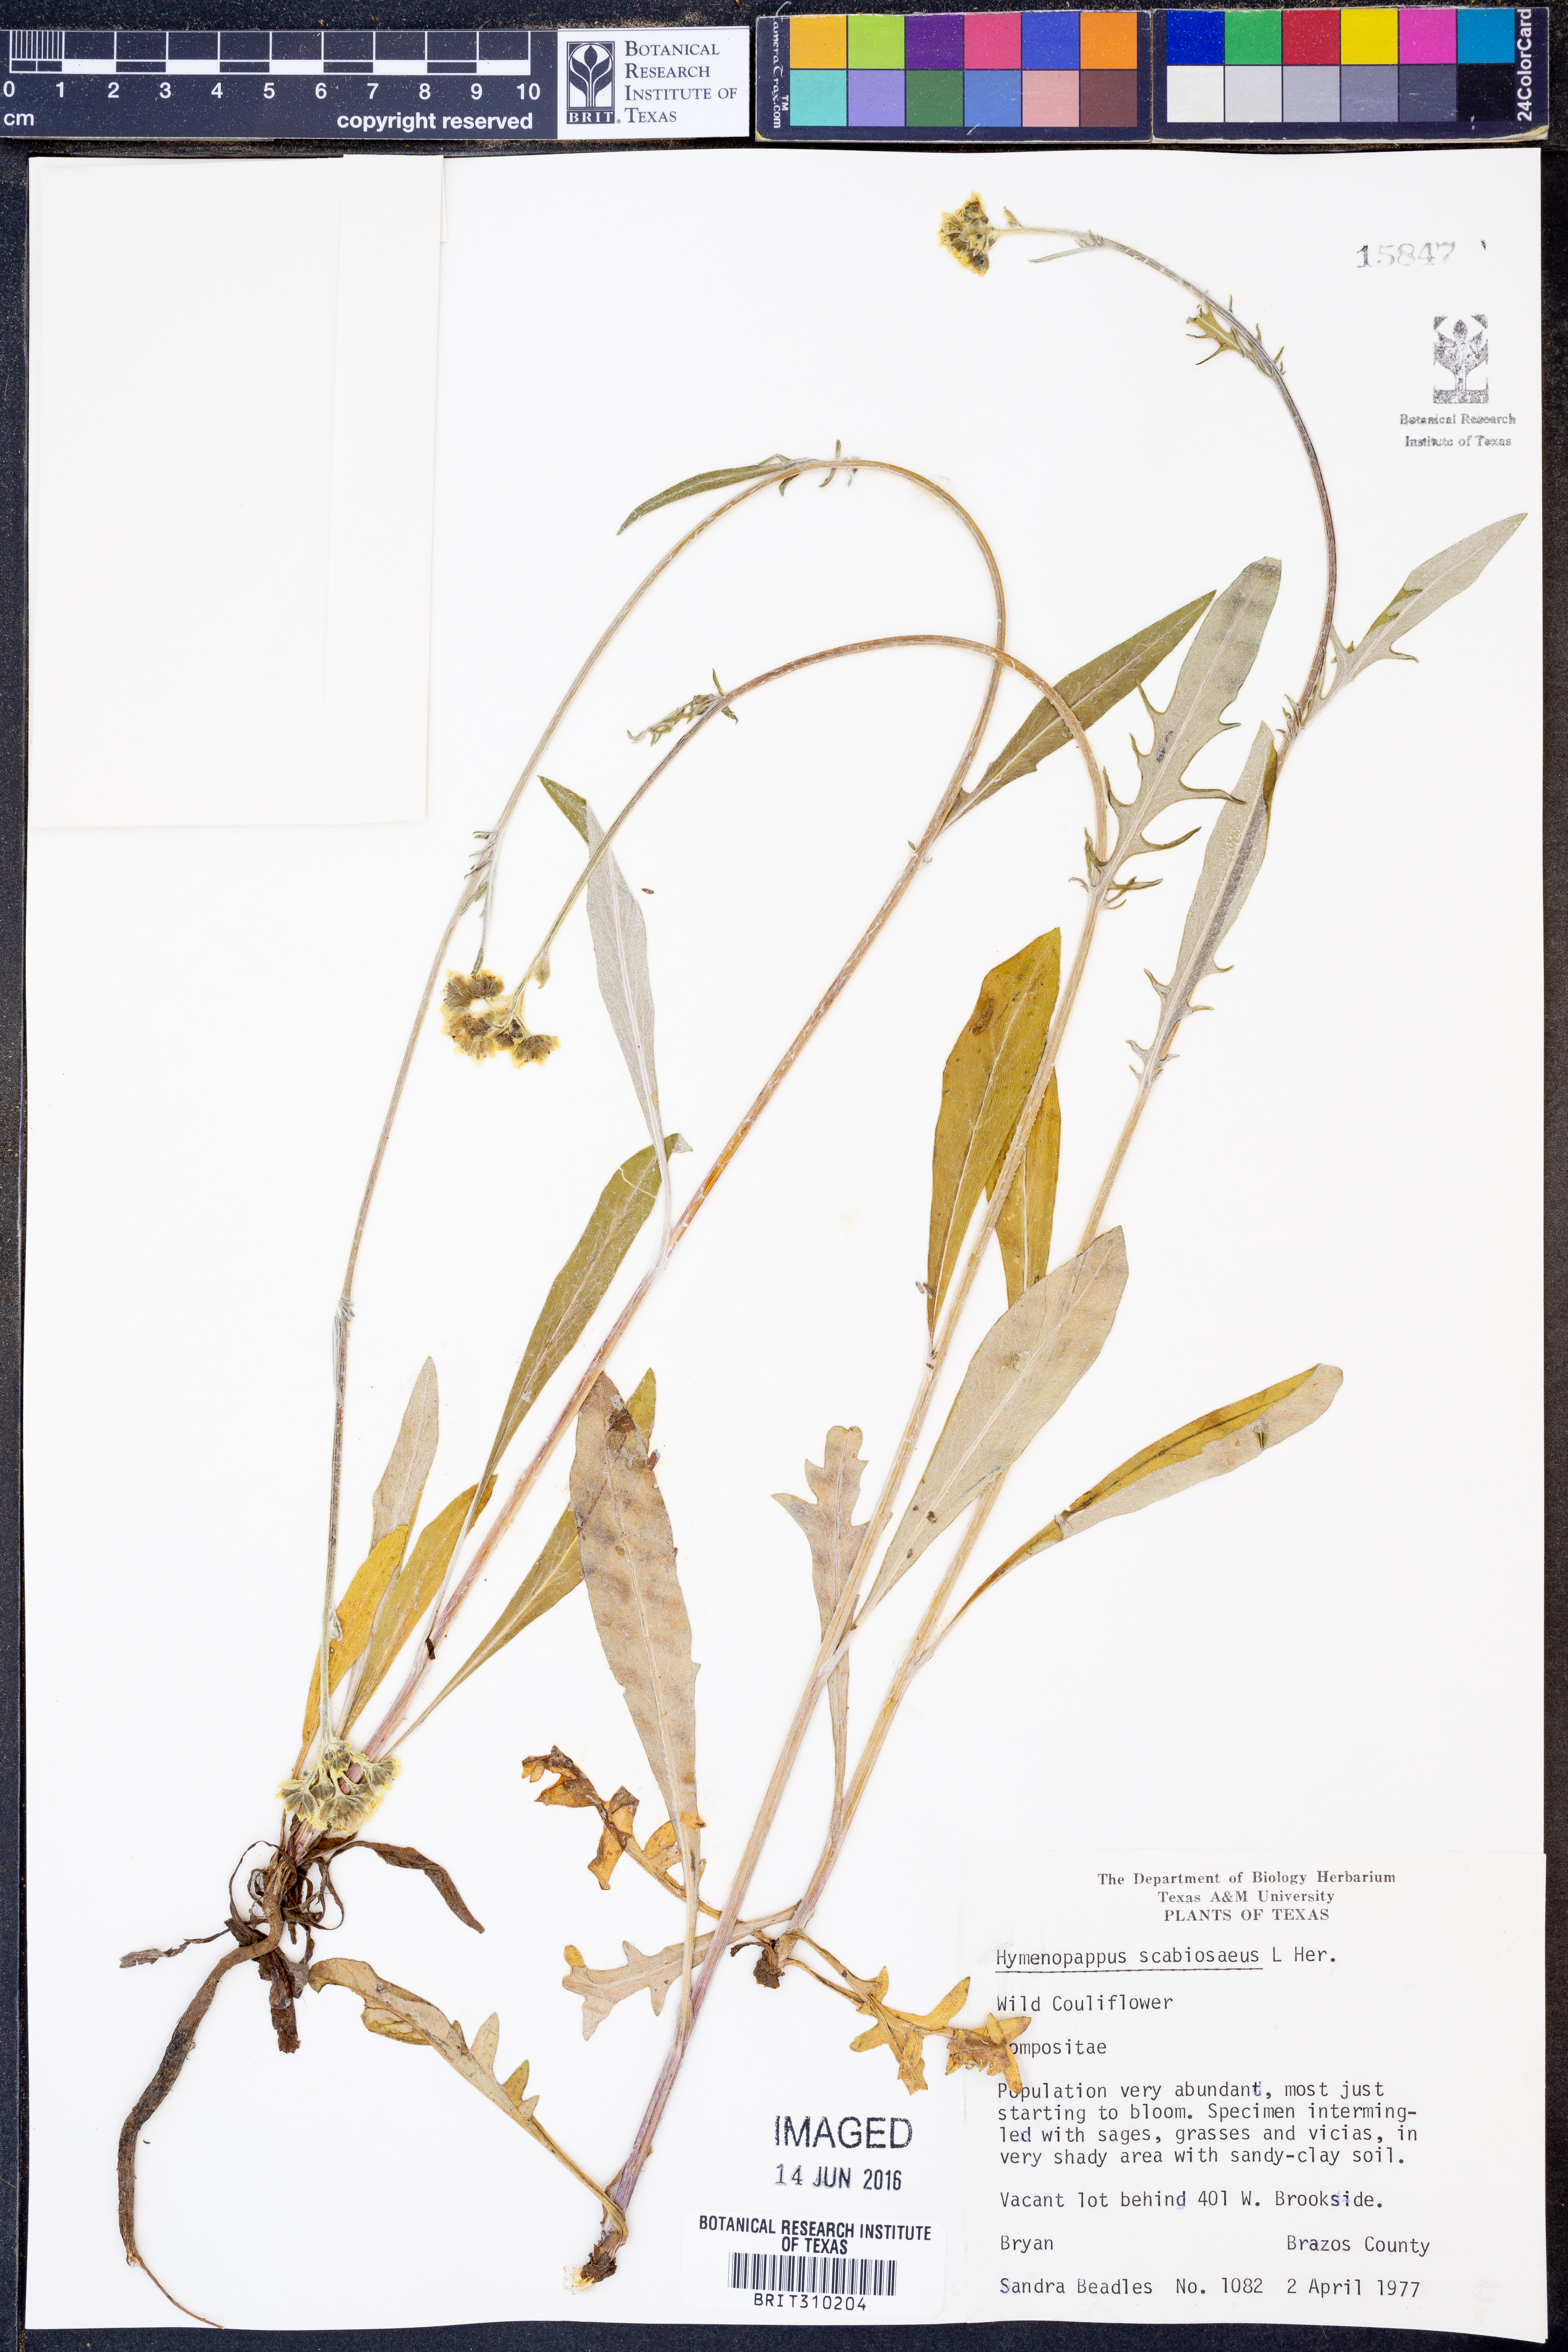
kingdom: Plantae
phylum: Tracheophyta
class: Magnoliopsida
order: Asterales
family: Asteraceae
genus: Hymenopappus
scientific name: Hymenopappus scabiosaeus
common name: Carolina woollywhite
